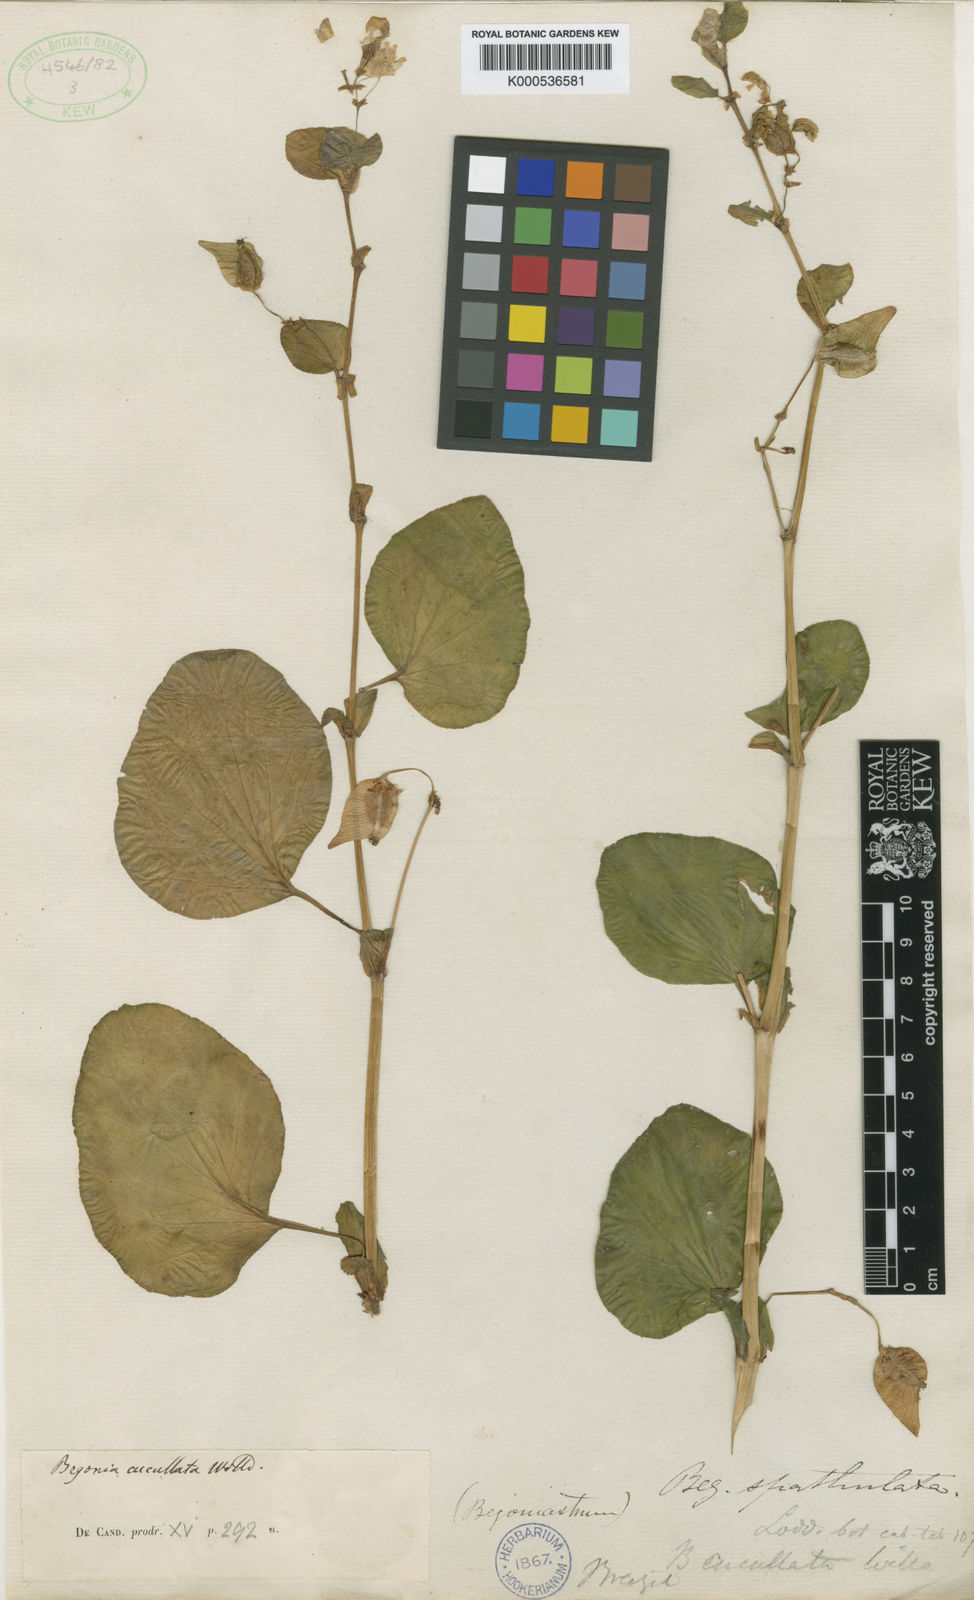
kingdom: Plantae
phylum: Tracheophyta
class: Magnoliopsida
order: Cucurbitales
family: Begoniaceae
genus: Begonia
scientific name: Begonia cucullata
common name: Clubbed begonia
